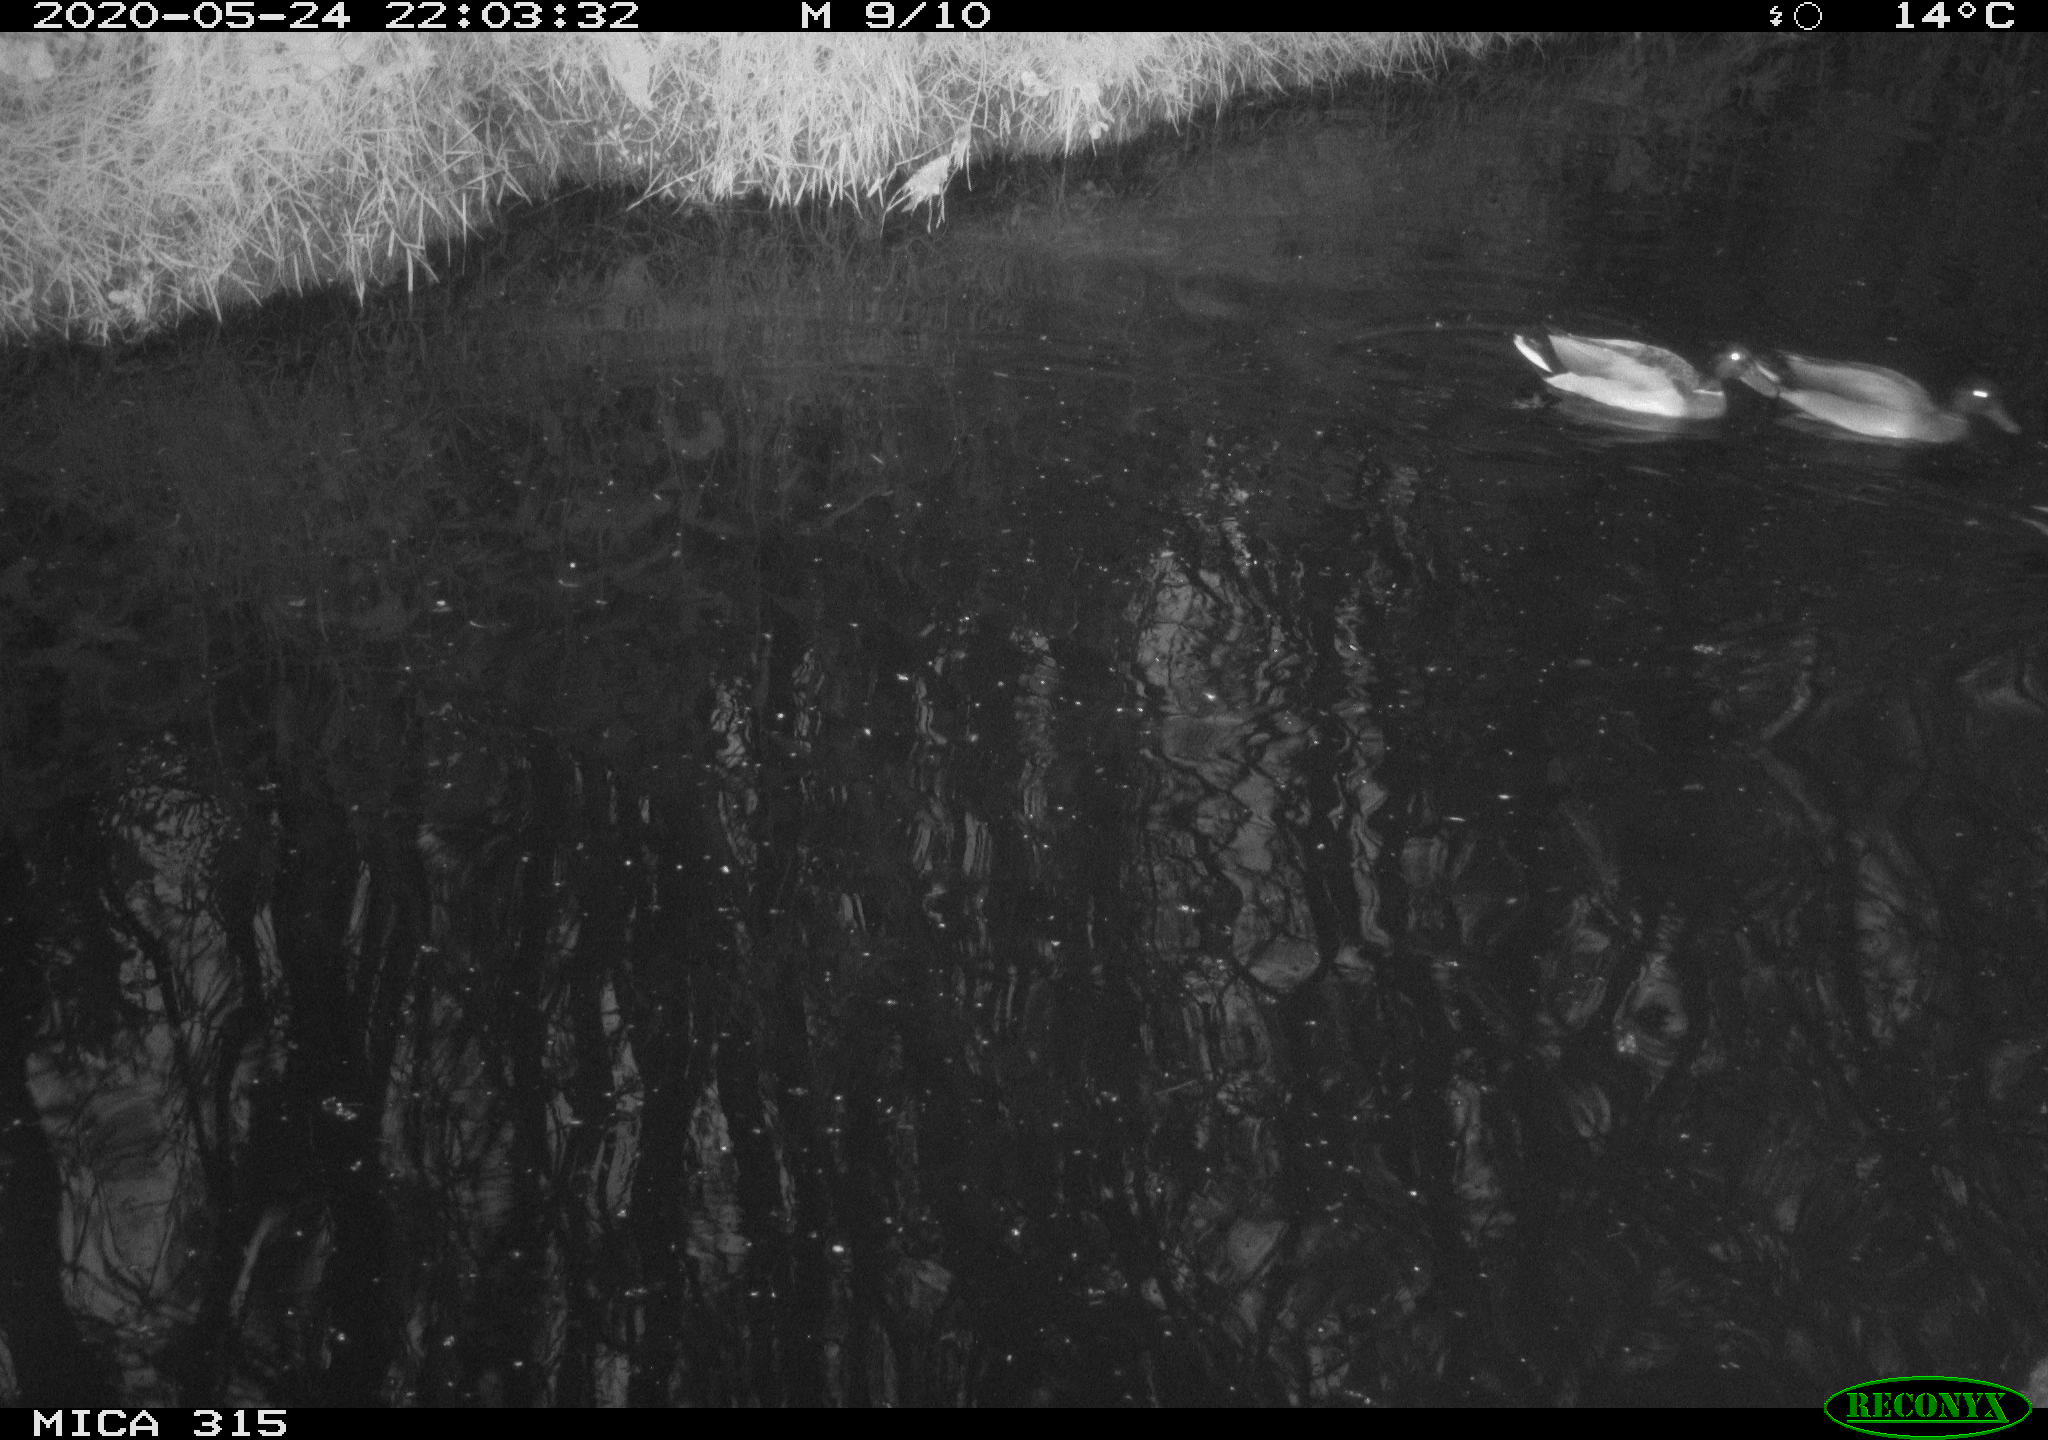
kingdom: Animalia
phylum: Chordata
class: Aves
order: Anseriformes
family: Anatidae
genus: Anas
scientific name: Anas platyrhynchos
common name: Mallard
